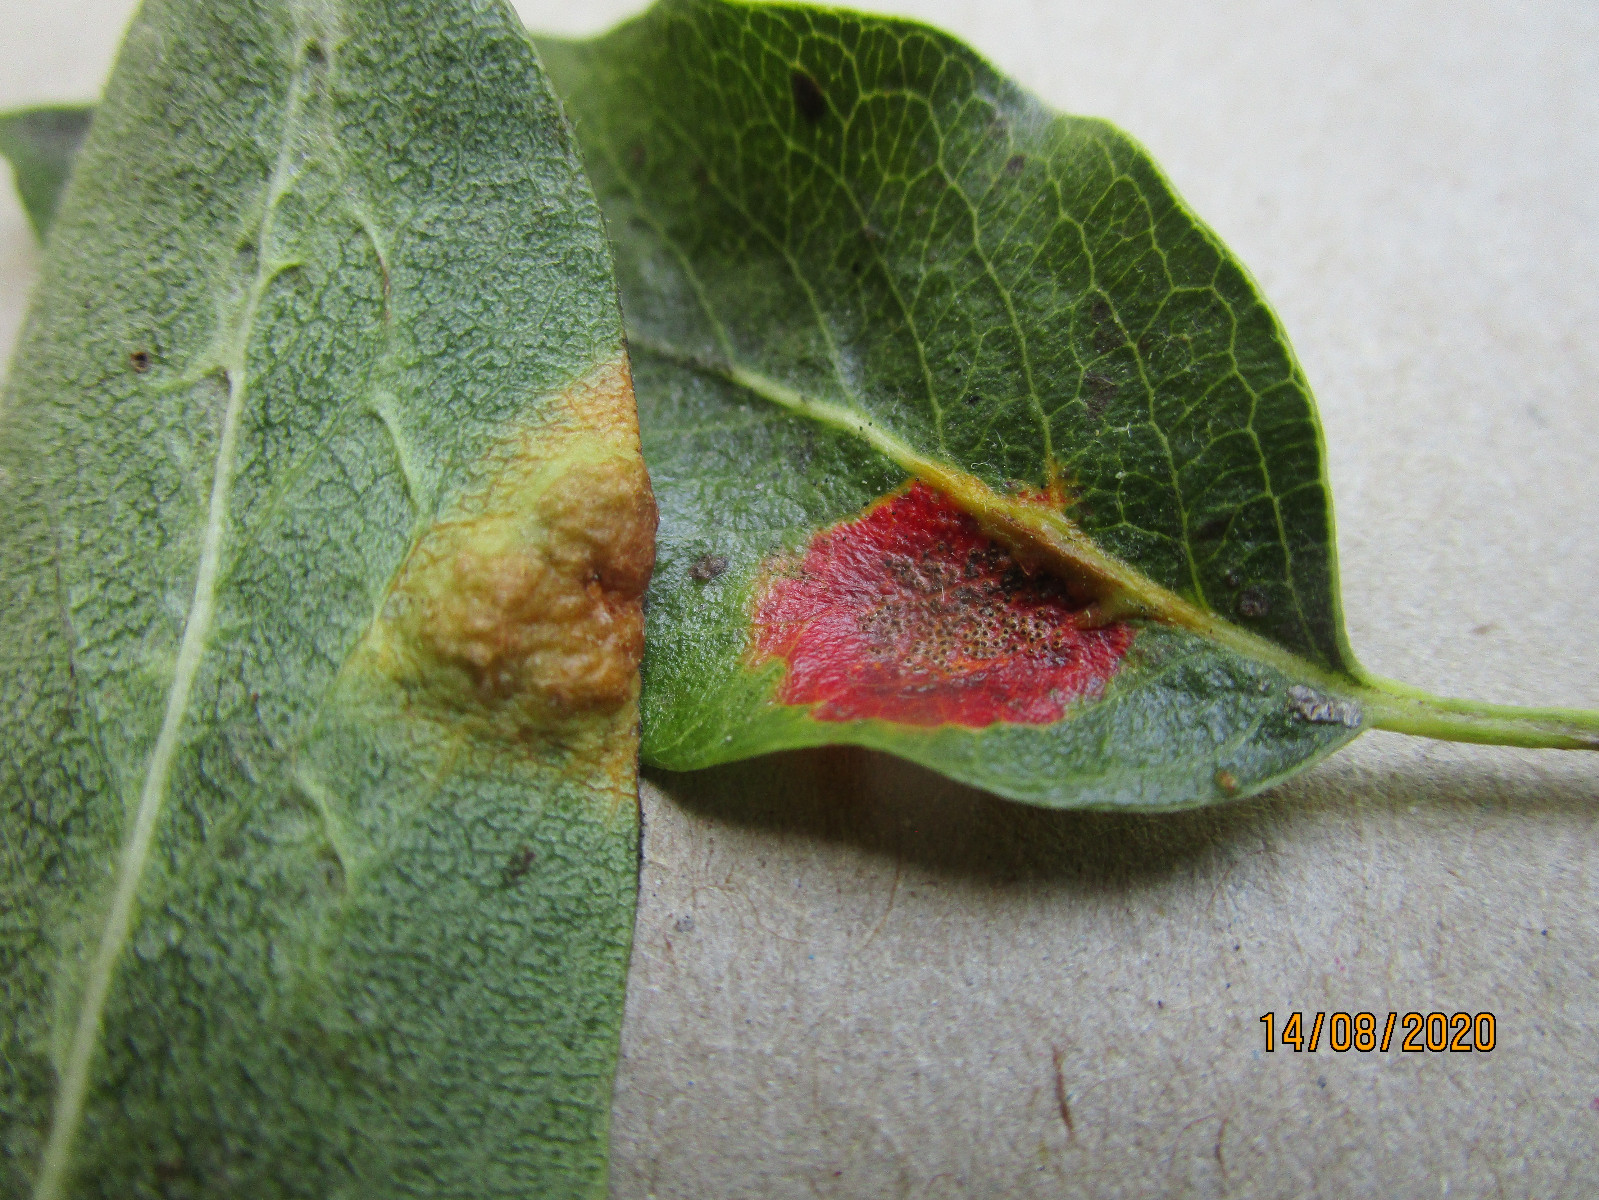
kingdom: Fungi
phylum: Basidiomycota
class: Pucciniomycetes
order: Pucciniales
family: Gymnosporangiaceae
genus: Gymnosporangium
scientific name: Gymnosporangium sabinae
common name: pæregitter-bævrerust
